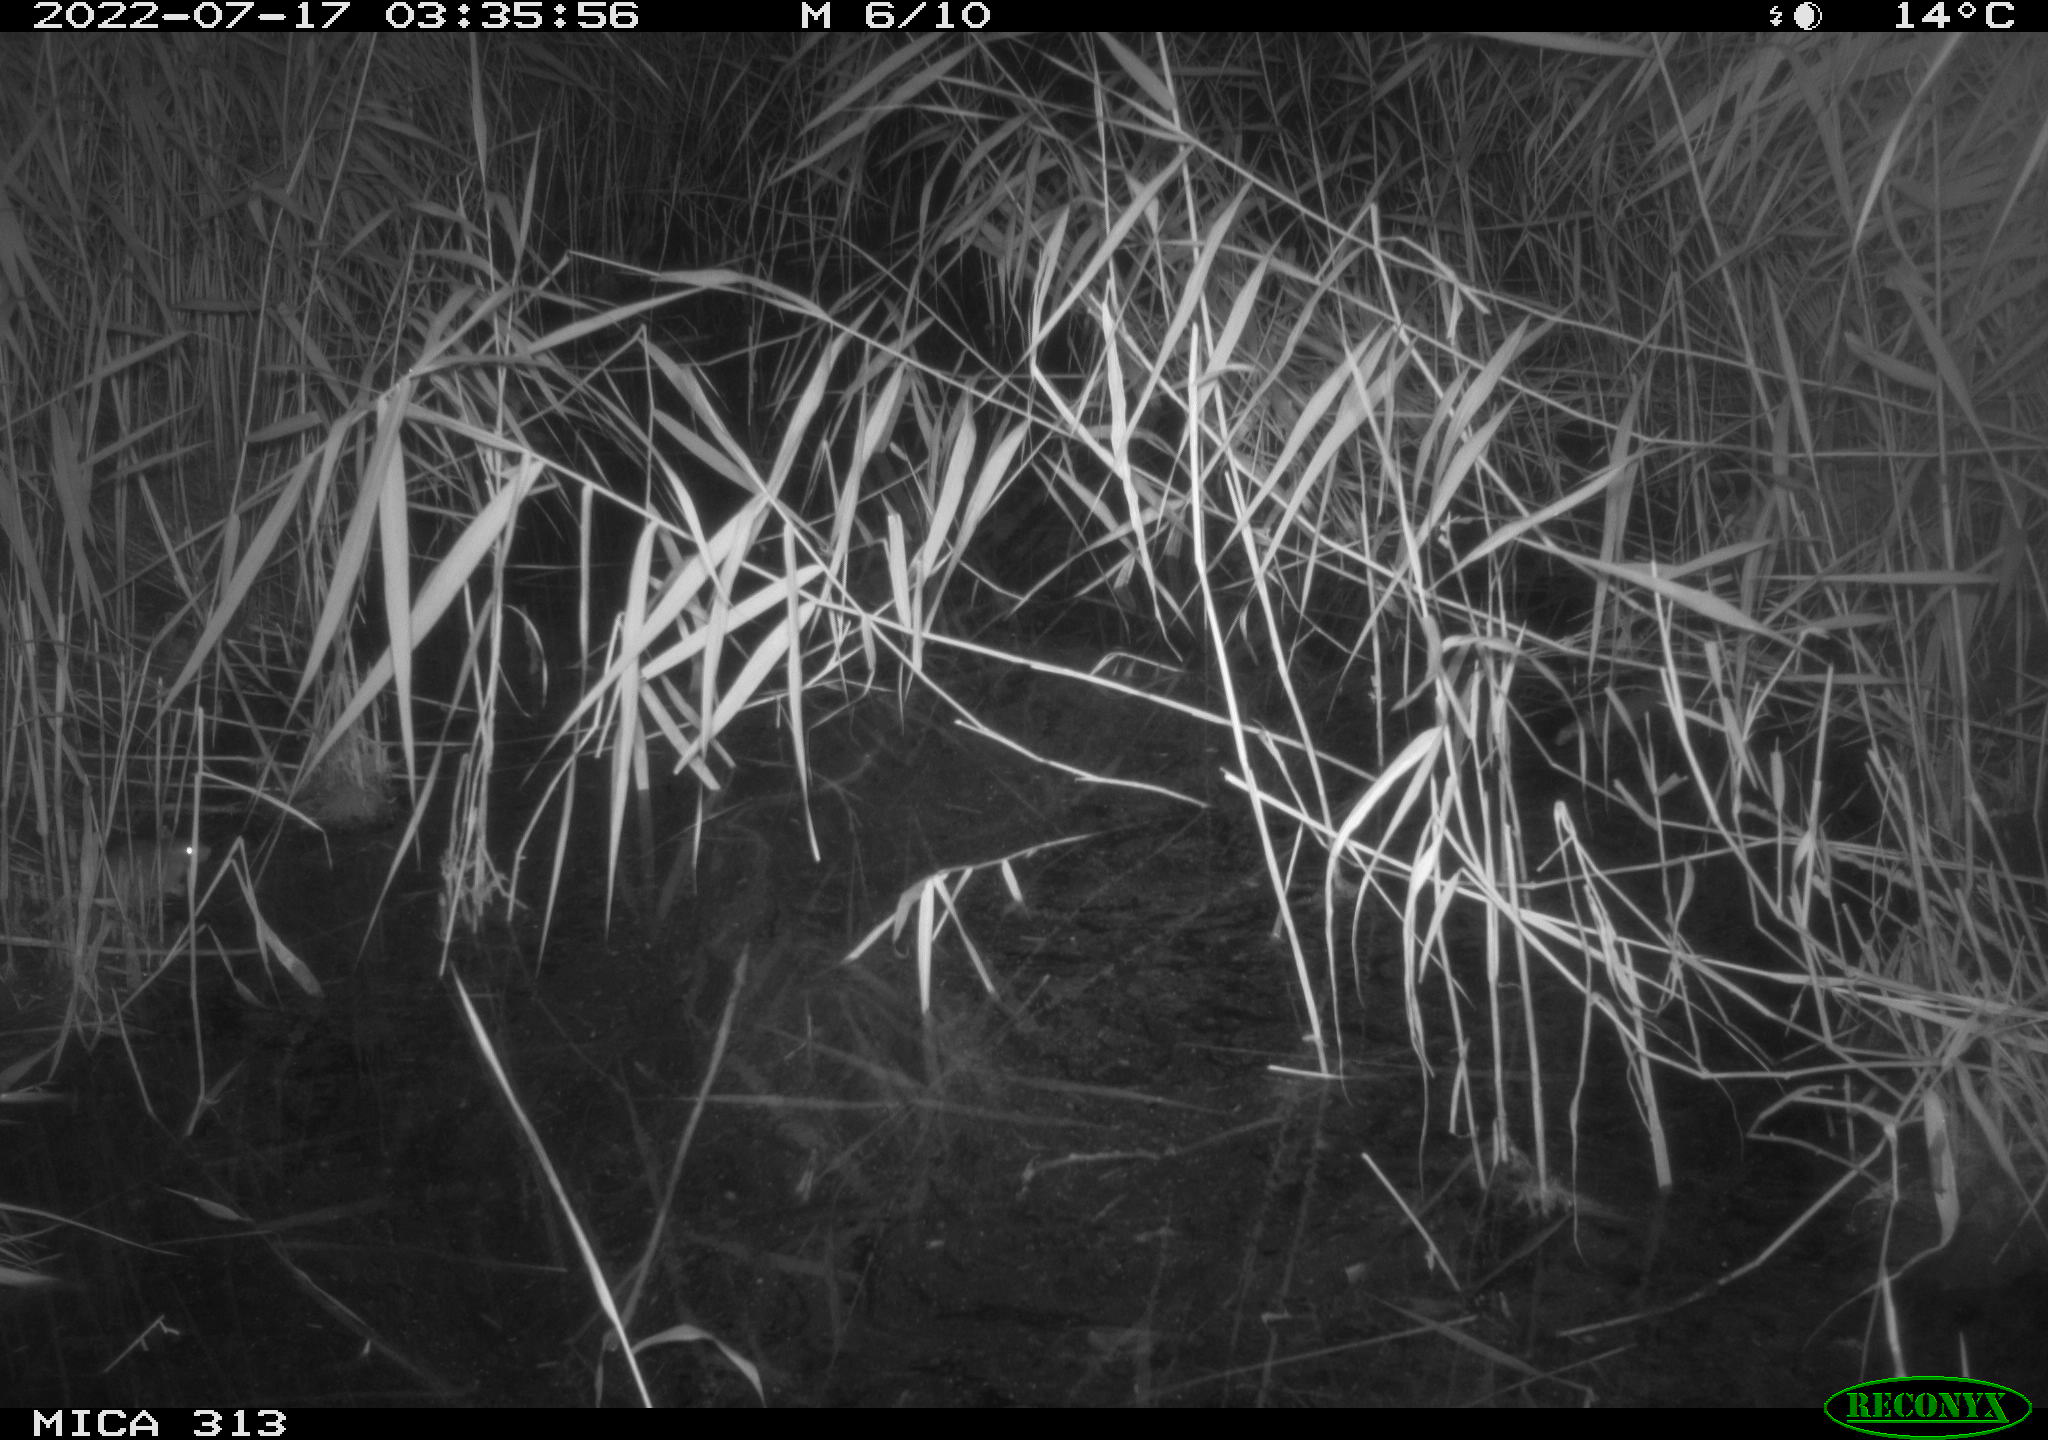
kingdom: Animalia
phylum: Chordata
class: Mammalia
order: Rodentia
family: Muridae
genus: Rattus
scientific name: Rattus norvegicus
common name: Brown rat
